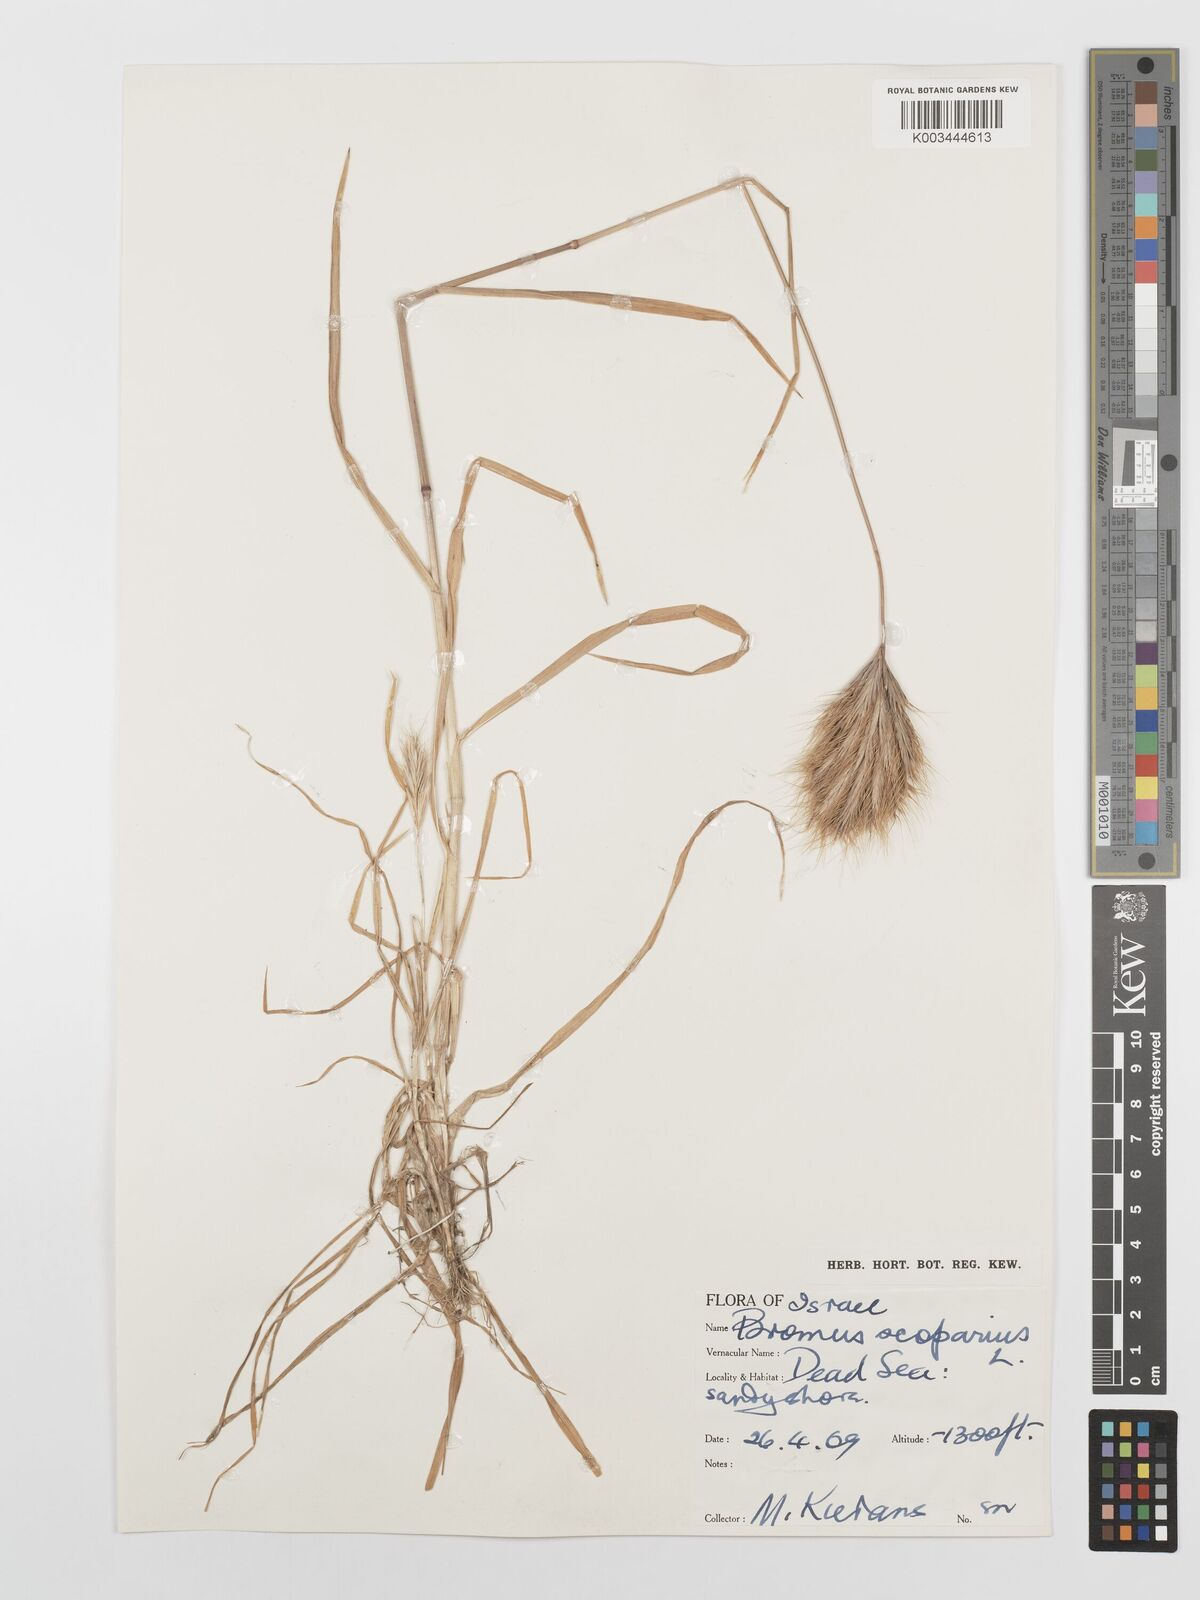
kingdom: Plantae
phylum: Tracheophyta
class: Liliopsida
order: Poales
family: Poaceae
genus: Bromus
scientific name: Bromus scoparius
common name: Broom brome
